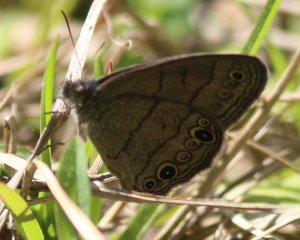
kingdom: Animalia
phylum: Arthropoda
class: Insecta
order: Lepidoptera
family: Nymphalidae
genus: Hermeuptychia
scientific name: Hermeuptychia hermes
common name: Carolina Satyr
